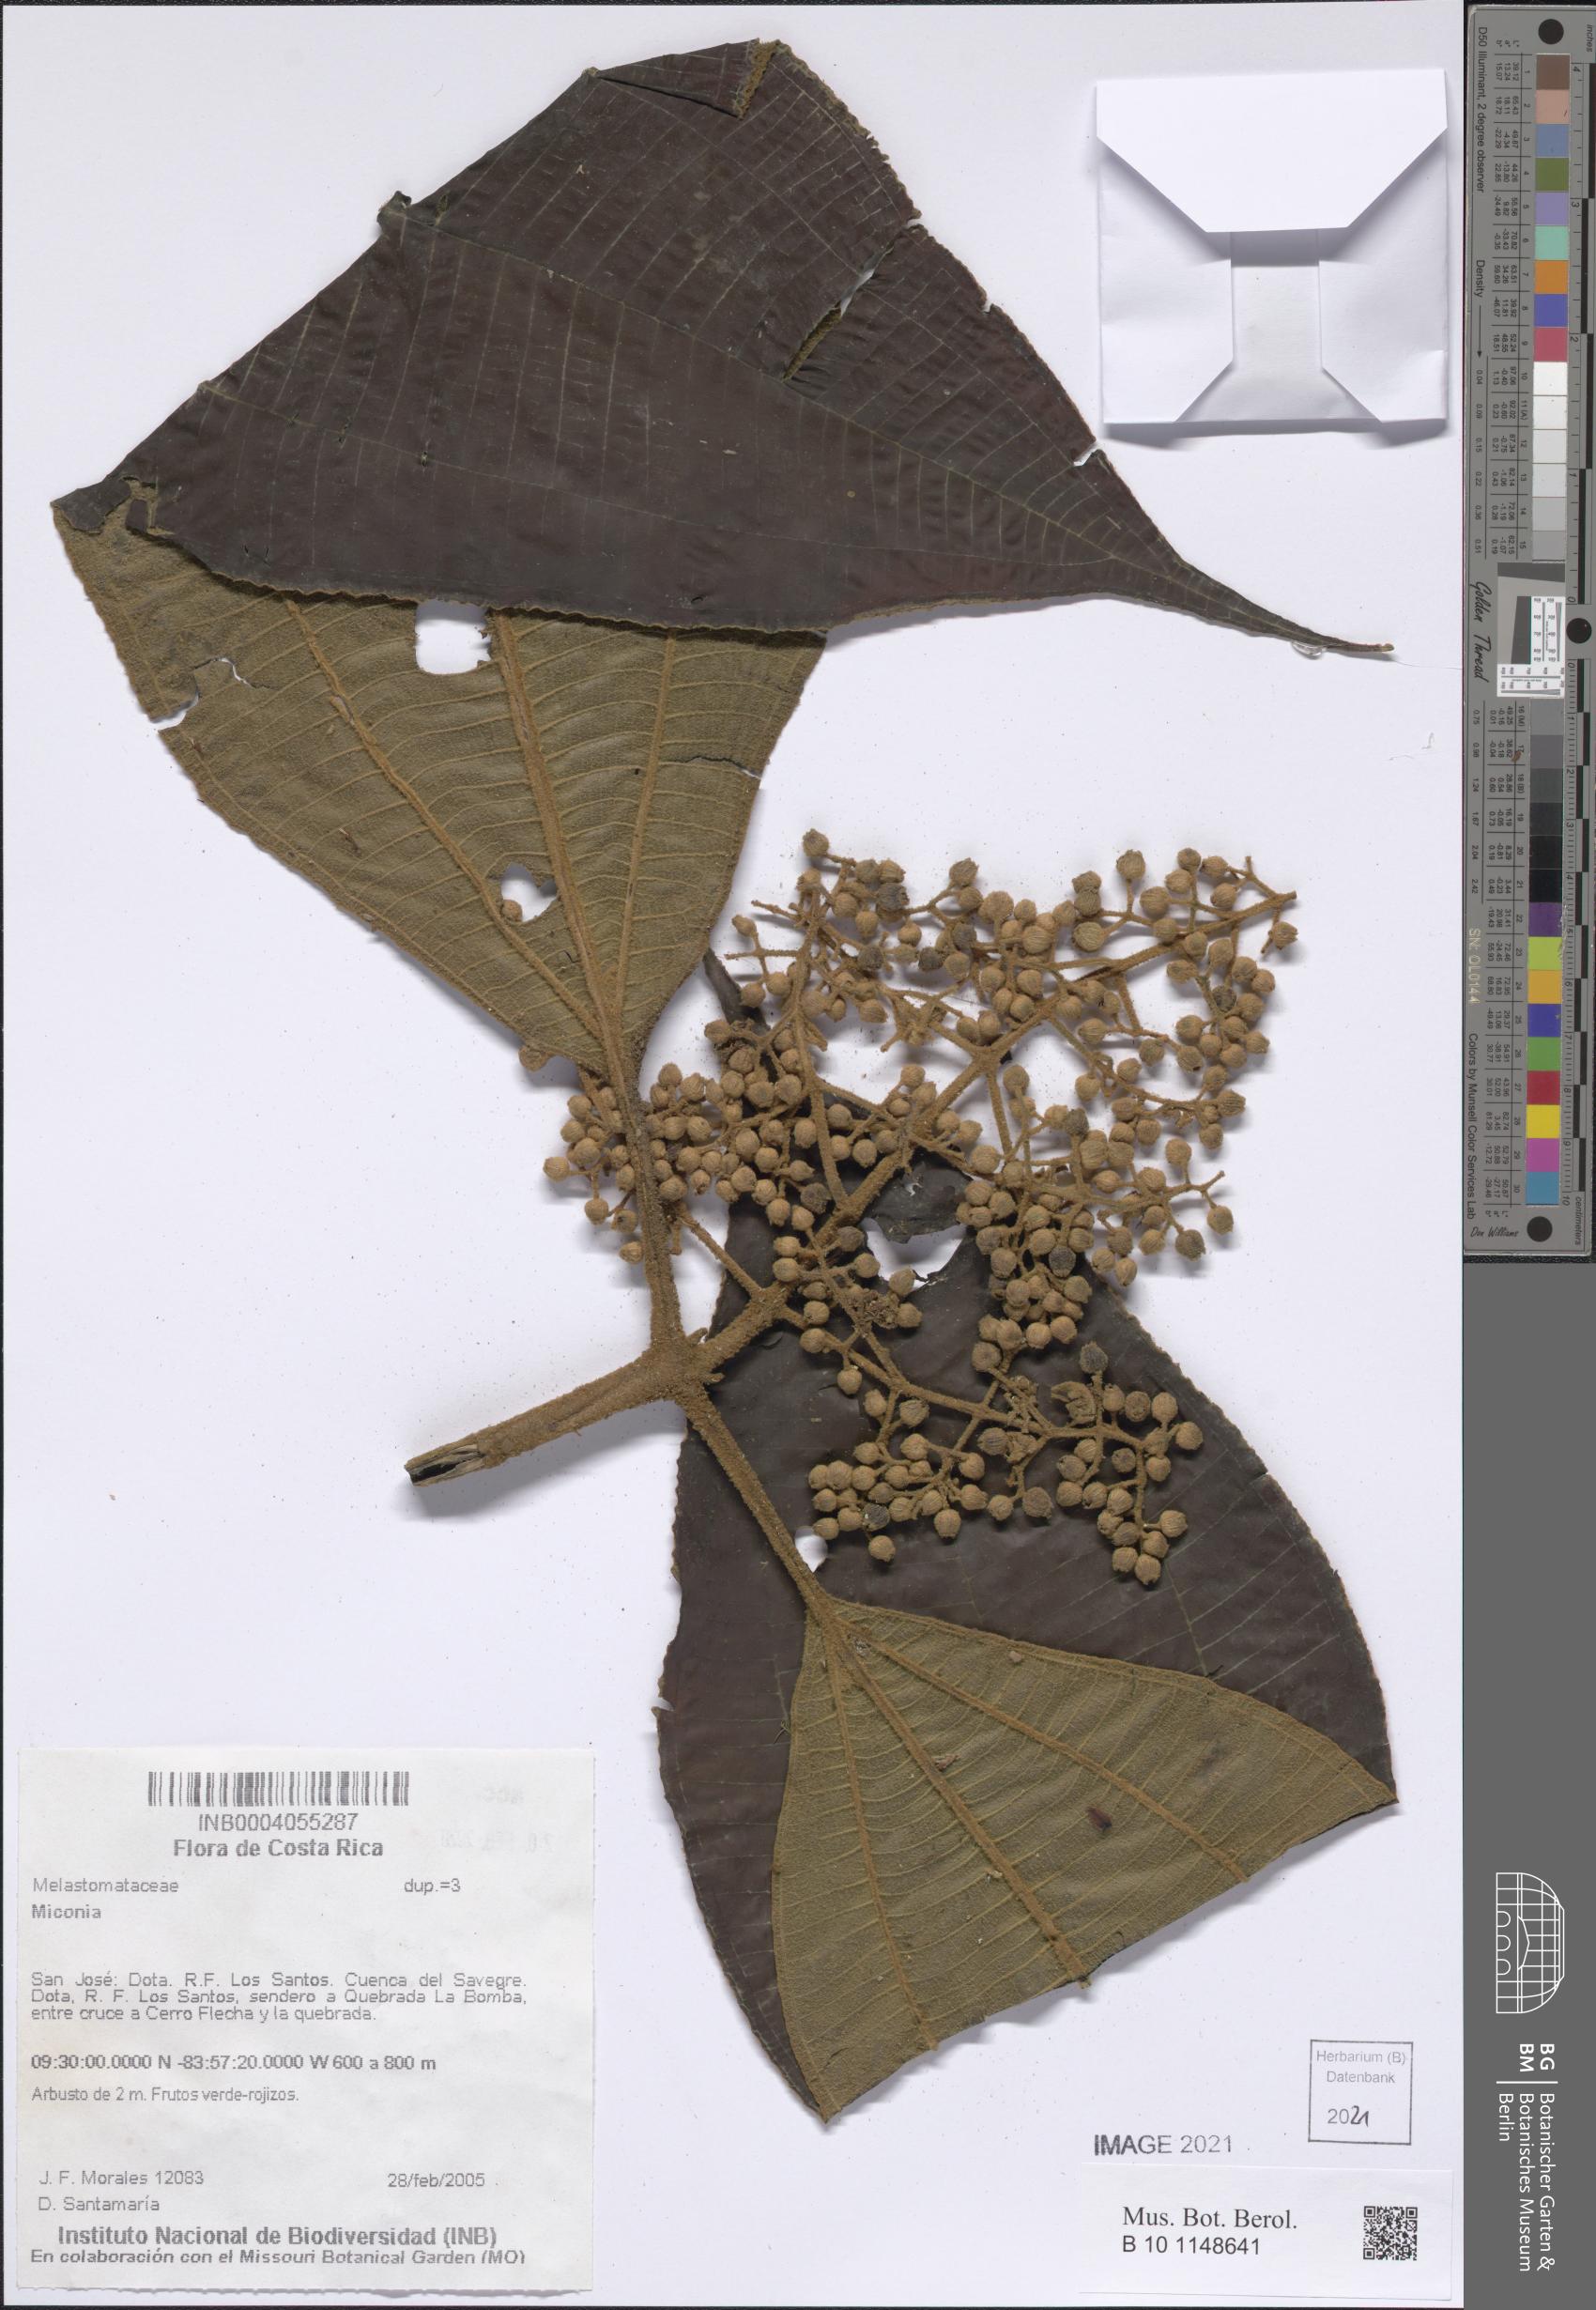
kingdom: Plantae
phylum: Tracheophyta
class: Magnoliopsida
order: Myrtales
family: Melastomataceae
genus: Miconia
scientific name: Miconia
